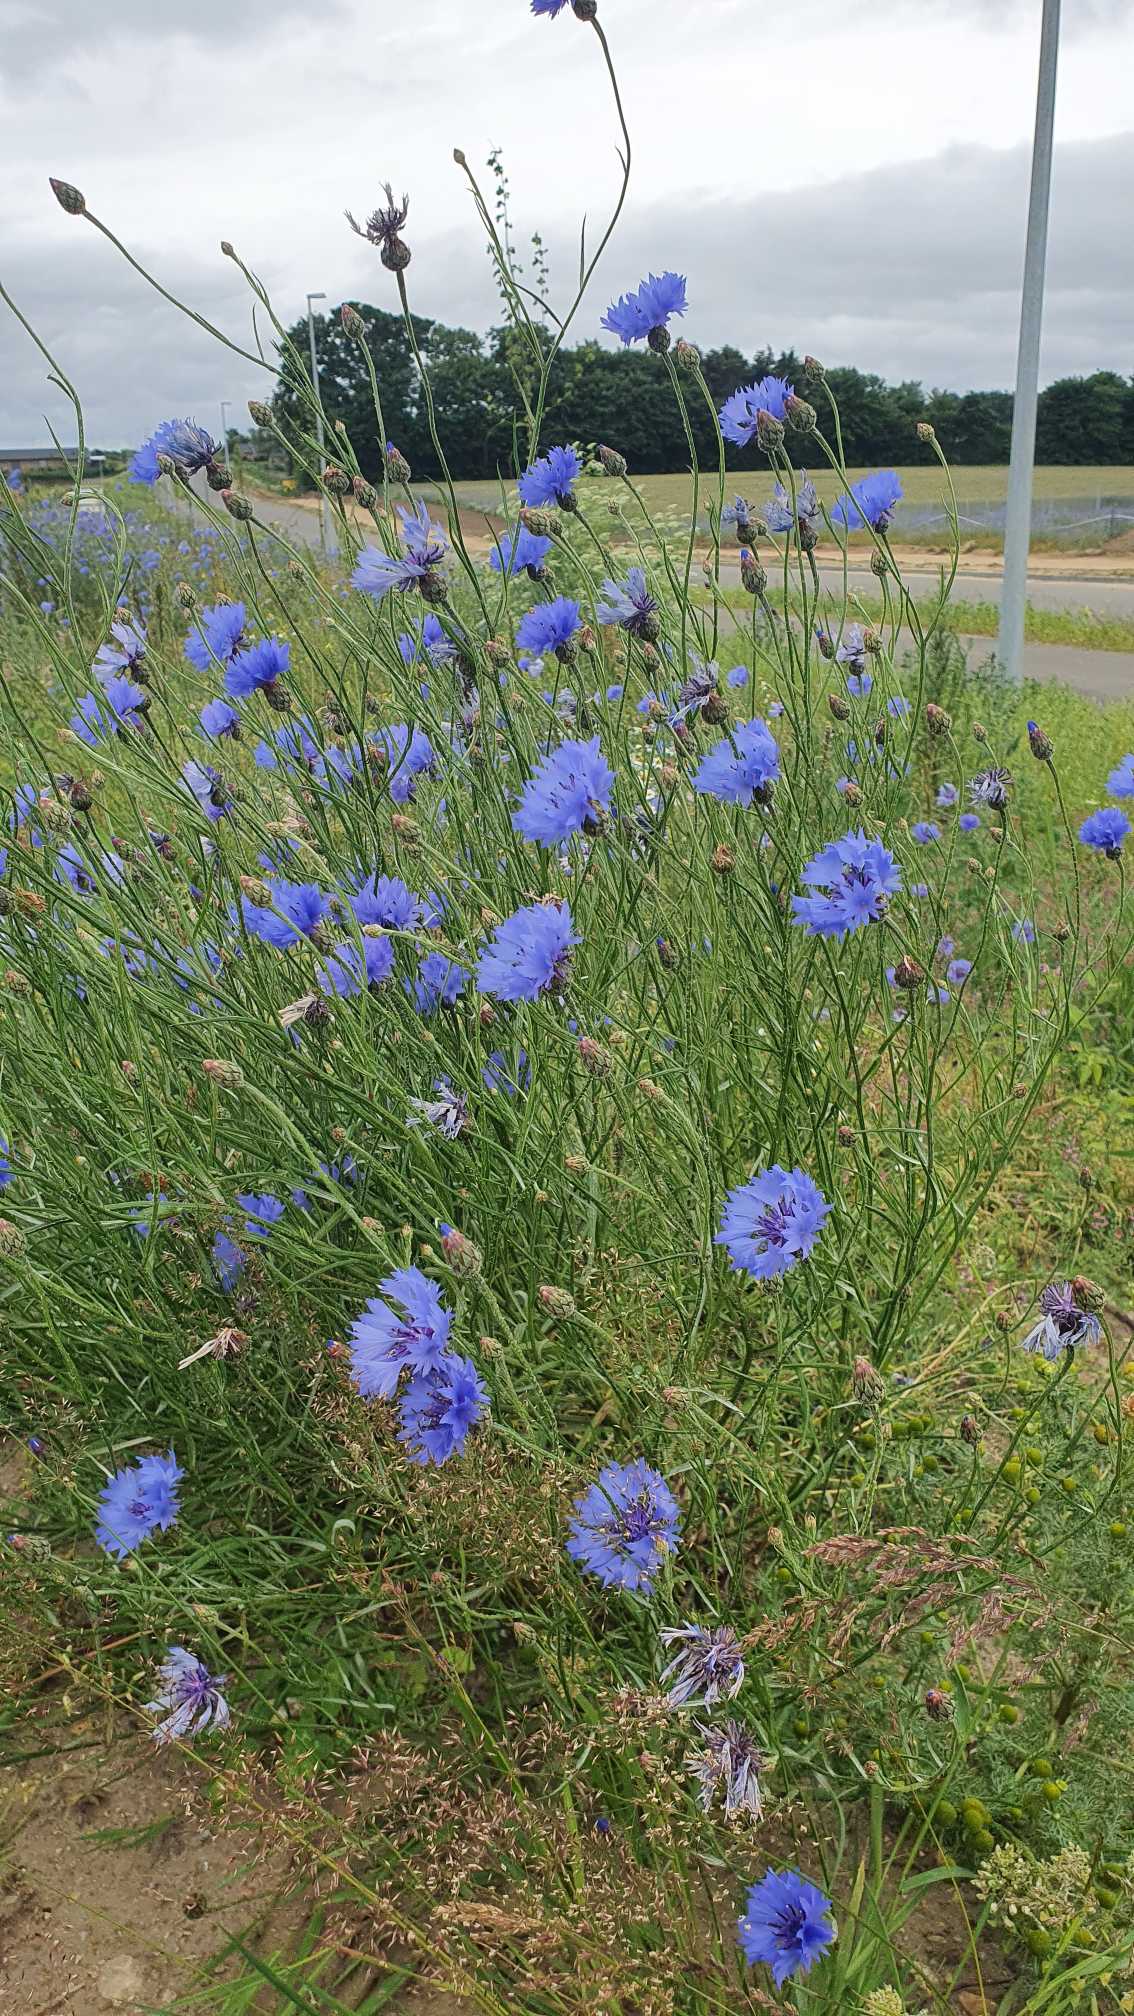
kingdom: Plantae
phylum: Tracheophyta
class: Magnoliopsida
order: Asterales
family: Asteraceae
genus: Centaurea
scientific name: Centaurea cyanus
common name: Kornblomst
